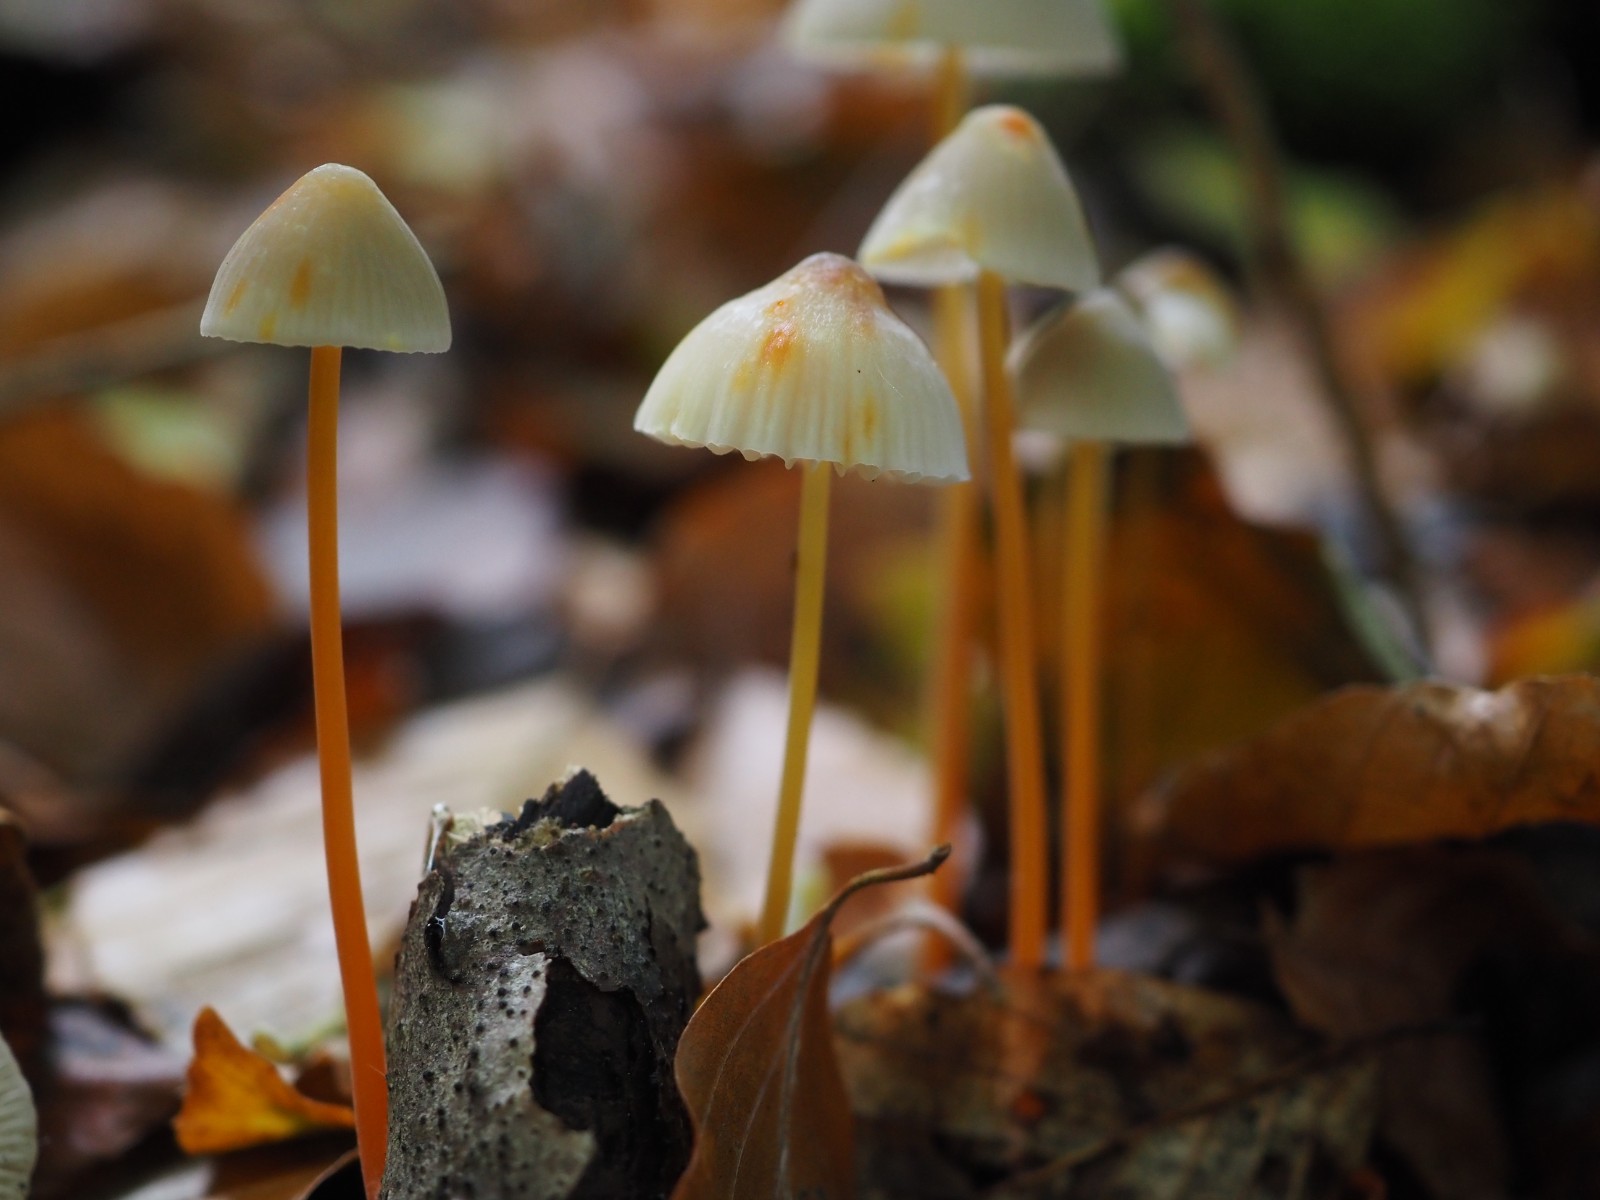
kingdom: Fungi
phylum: Basidiomycota
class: Agaricomycetes
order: Agaricales
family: Mycenaceae
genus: Mycena
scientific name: Mycena crocata
